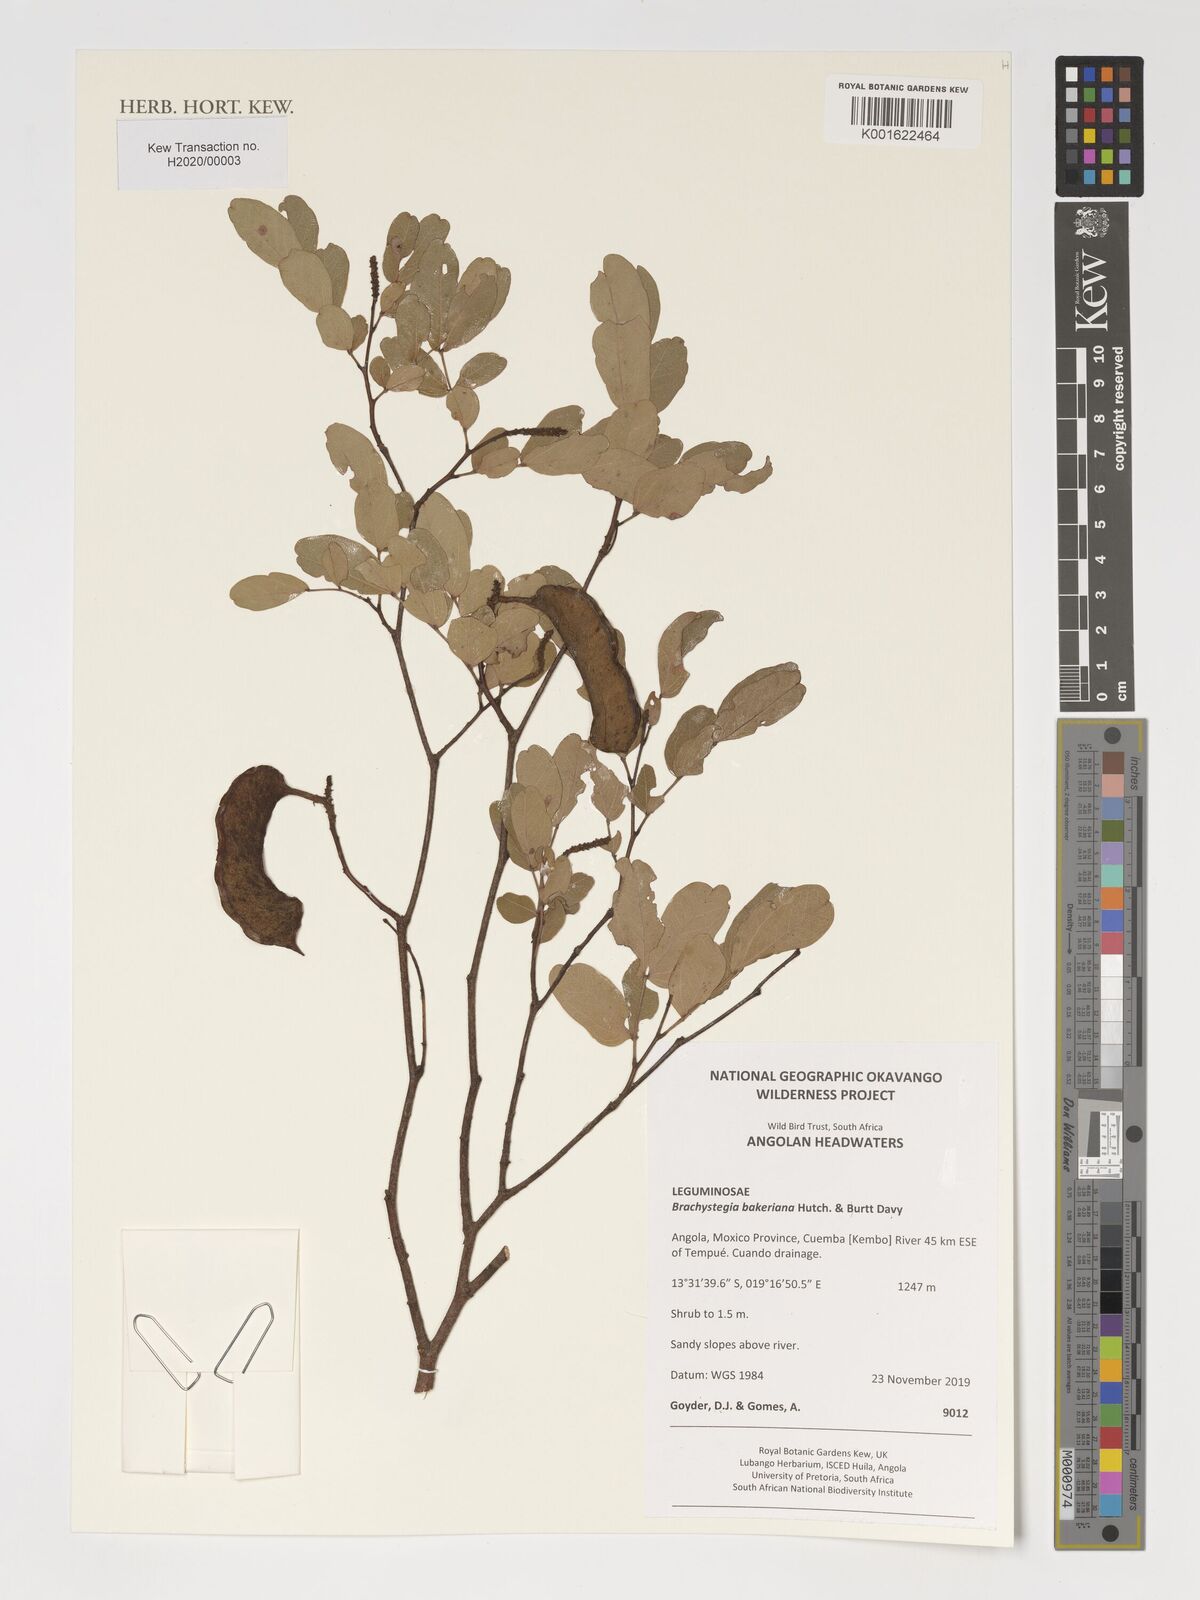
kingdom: Plantae
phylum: Tracheophyta
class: Magnoliopsida
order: Fabales
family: Fabaceae
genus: Brachystegia
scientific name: Brachystegia bakeriana
